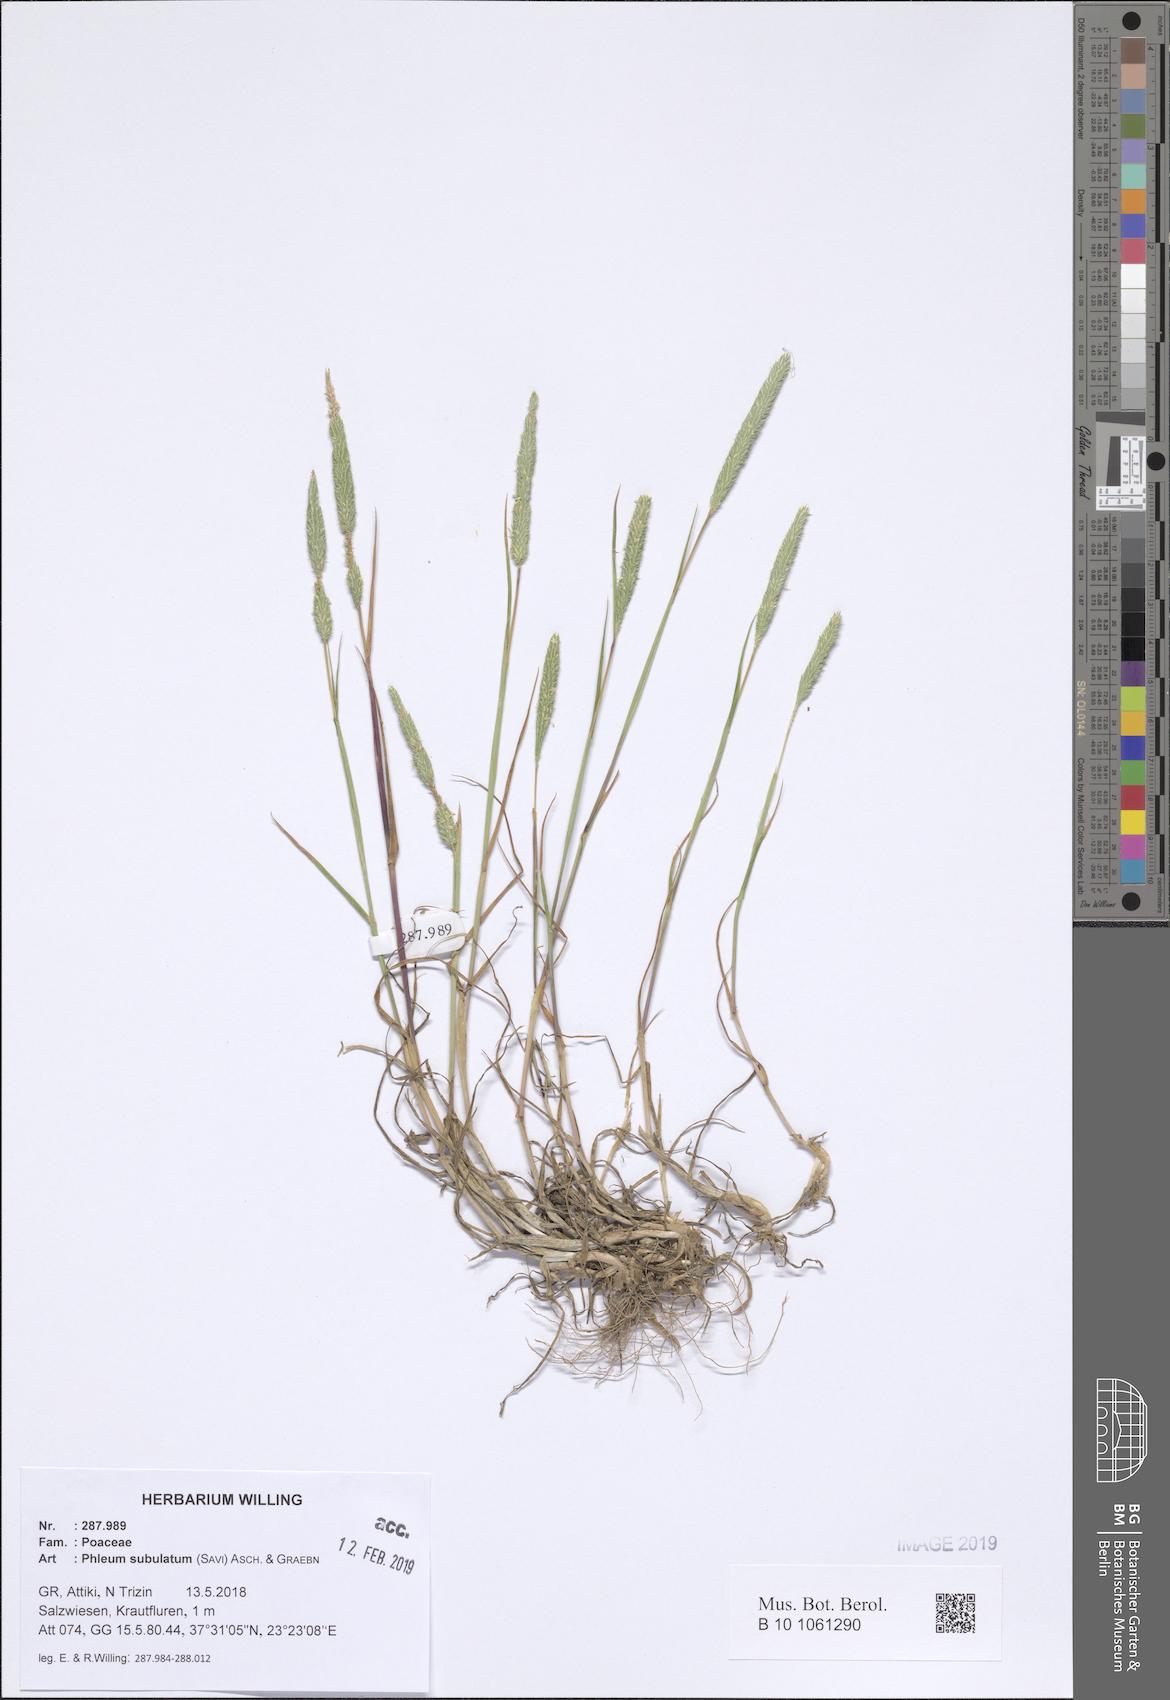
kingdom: Plantae
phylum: Tracheophyta
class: Liliopsida
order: Poales
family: Poaceae
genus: Phleum
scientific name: Phleum subulatum
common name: Italian timothy
